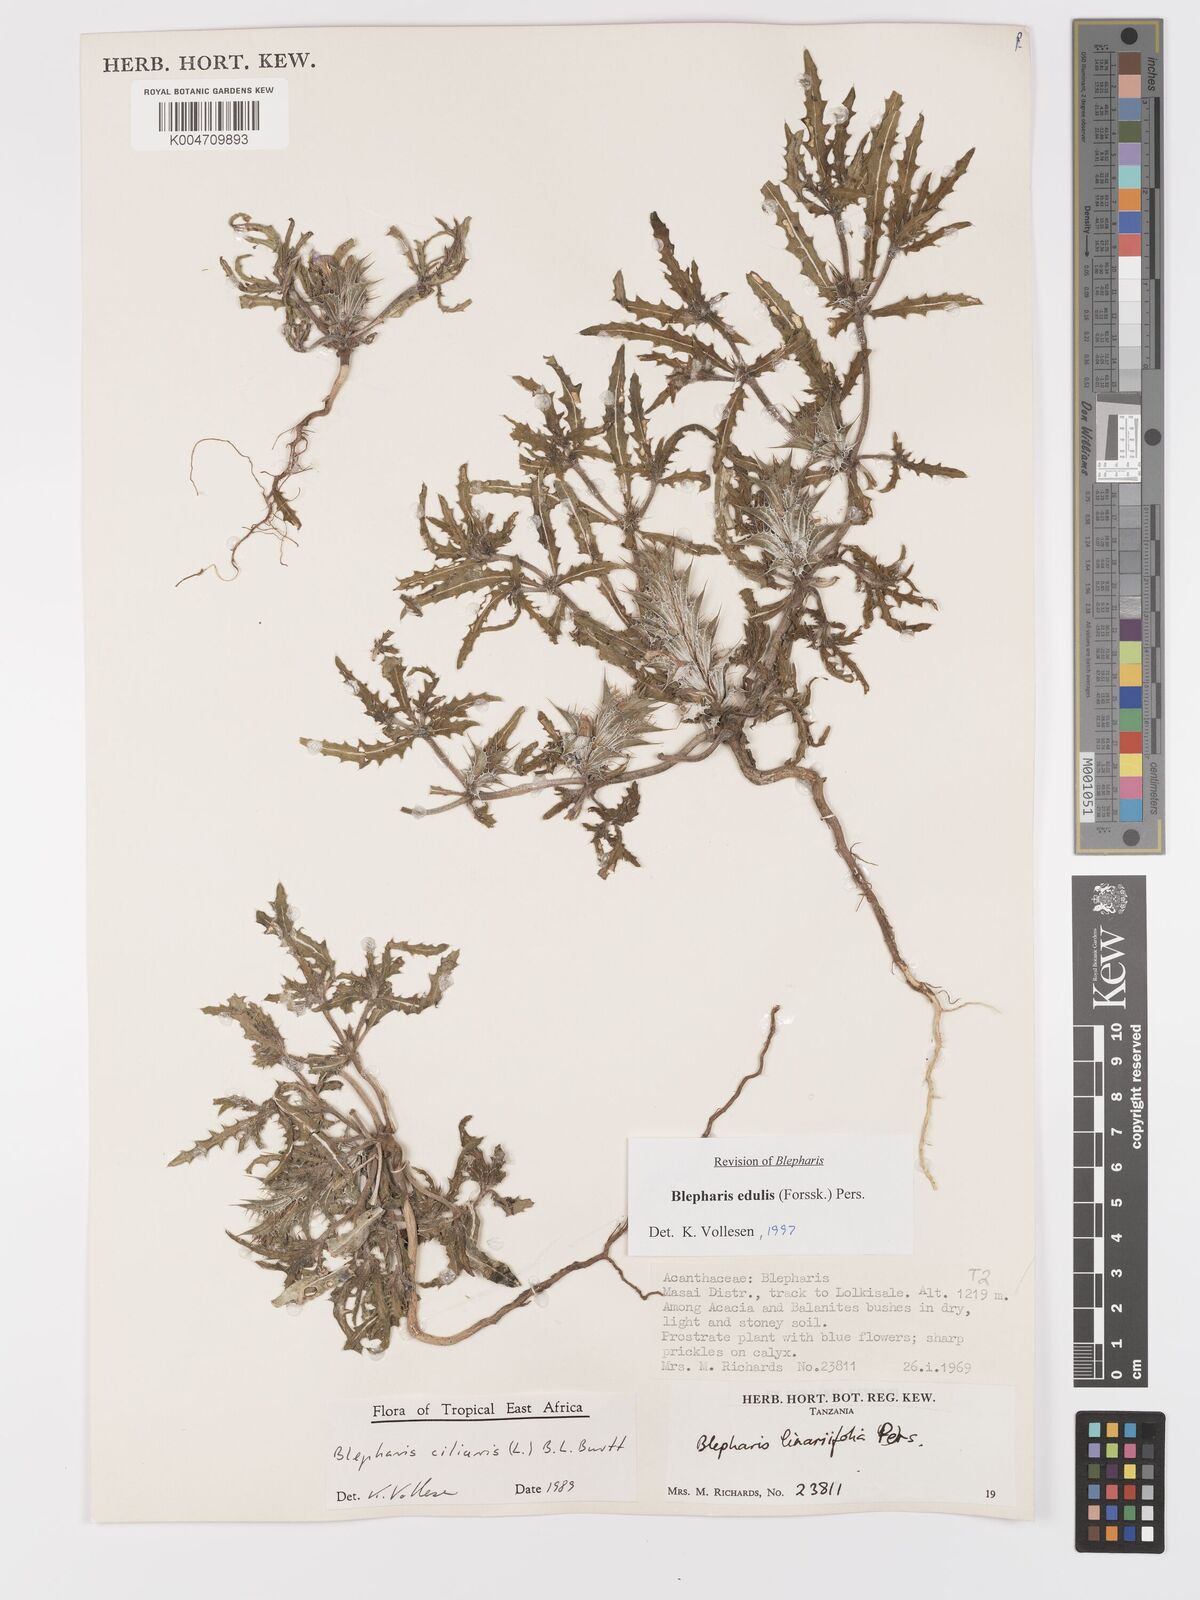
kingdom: Plantae
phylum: Tracheophyta
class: Magnoliopsida
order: Lamiales
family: Acanthaceae
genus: Blepharis
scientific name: Blepharis edulis
